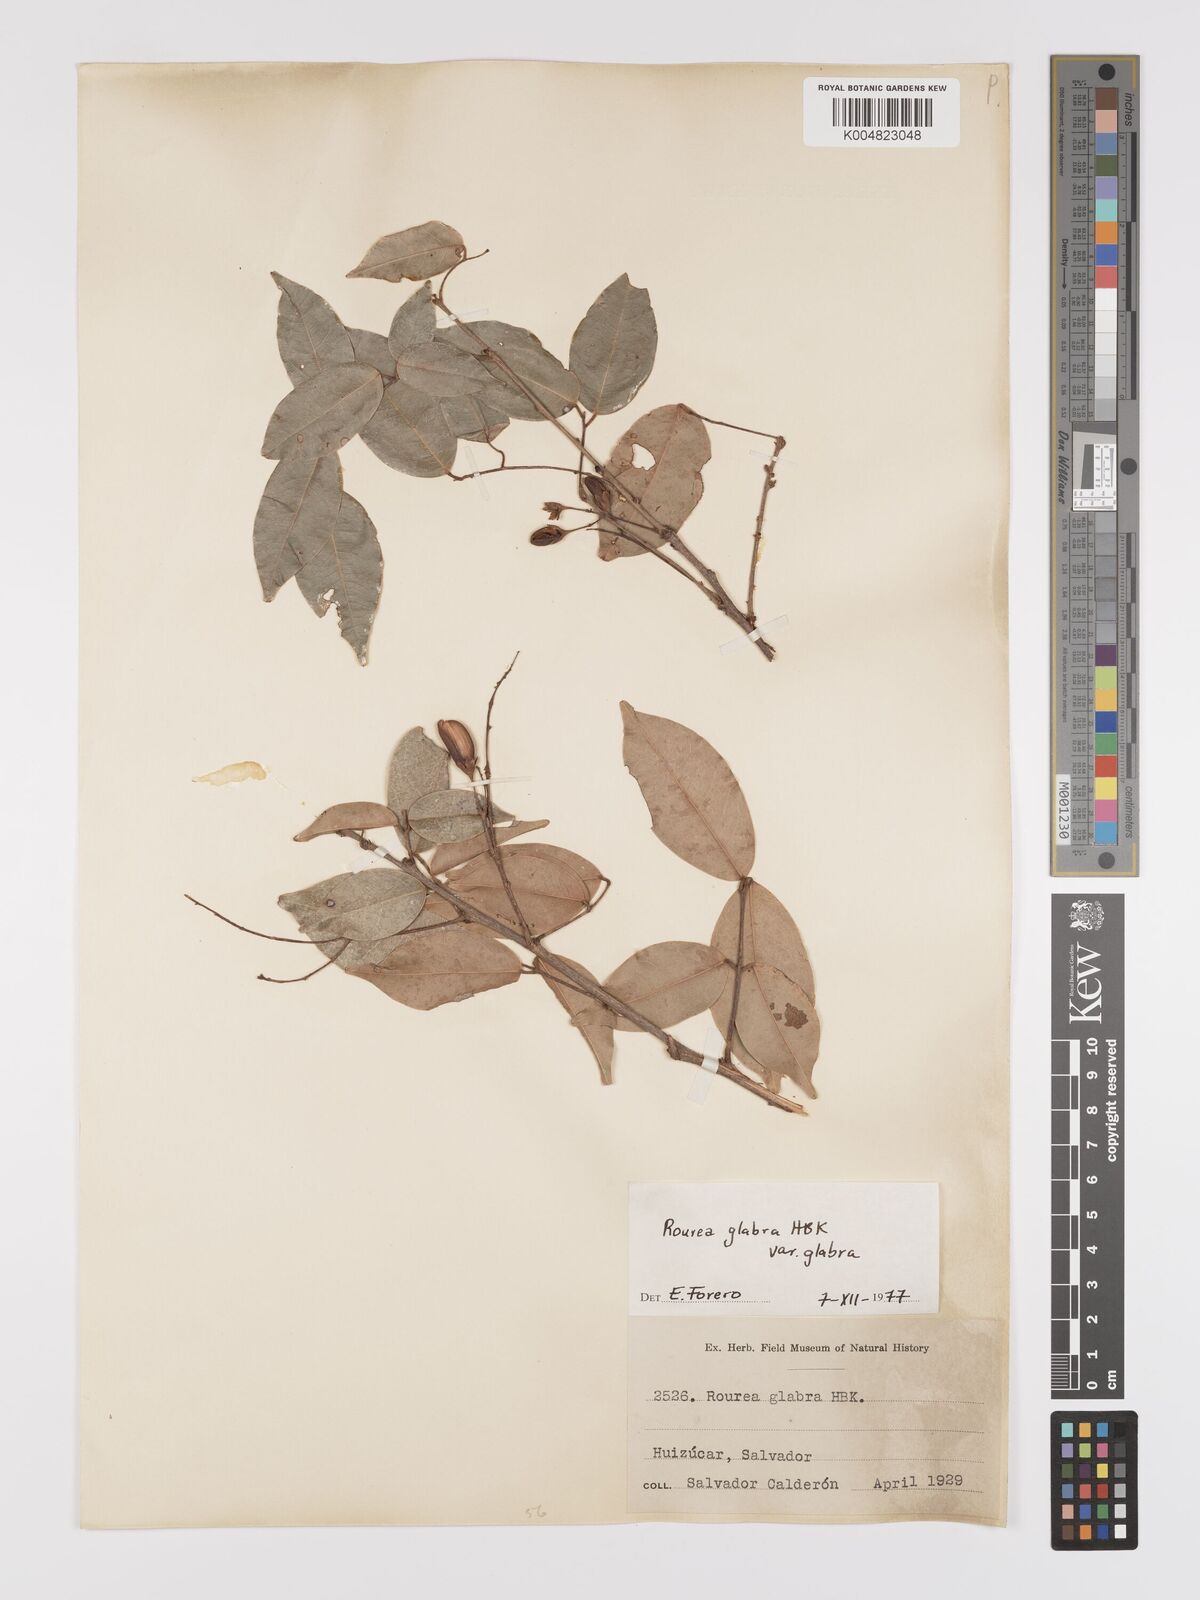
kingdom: Plantae
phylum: Tracheophyta
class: Magnoliopsida
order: Oxalidales
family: Connaraceae
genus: Rourea
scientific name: Rourea glabra
